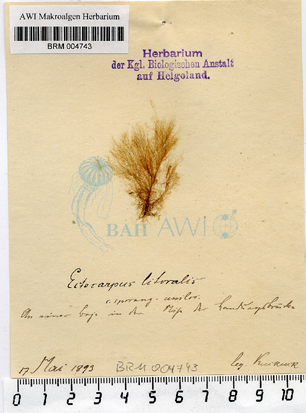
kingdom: Chromista
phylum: Ochrophyta
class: Phaeophyceae
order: Ectocarpales
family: Acinetosporaceae
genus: Pylaiella
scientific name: Pylaiella littoralis
